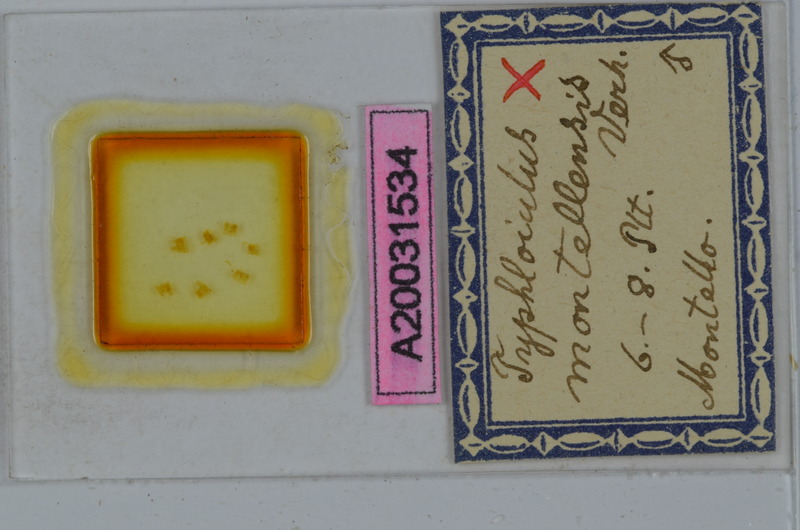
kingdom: Animalia
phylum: Arthropoda
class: Diplopoda
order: Julida
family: Julidae
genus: Stygiiulus
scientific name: Stygiiulus maximus
